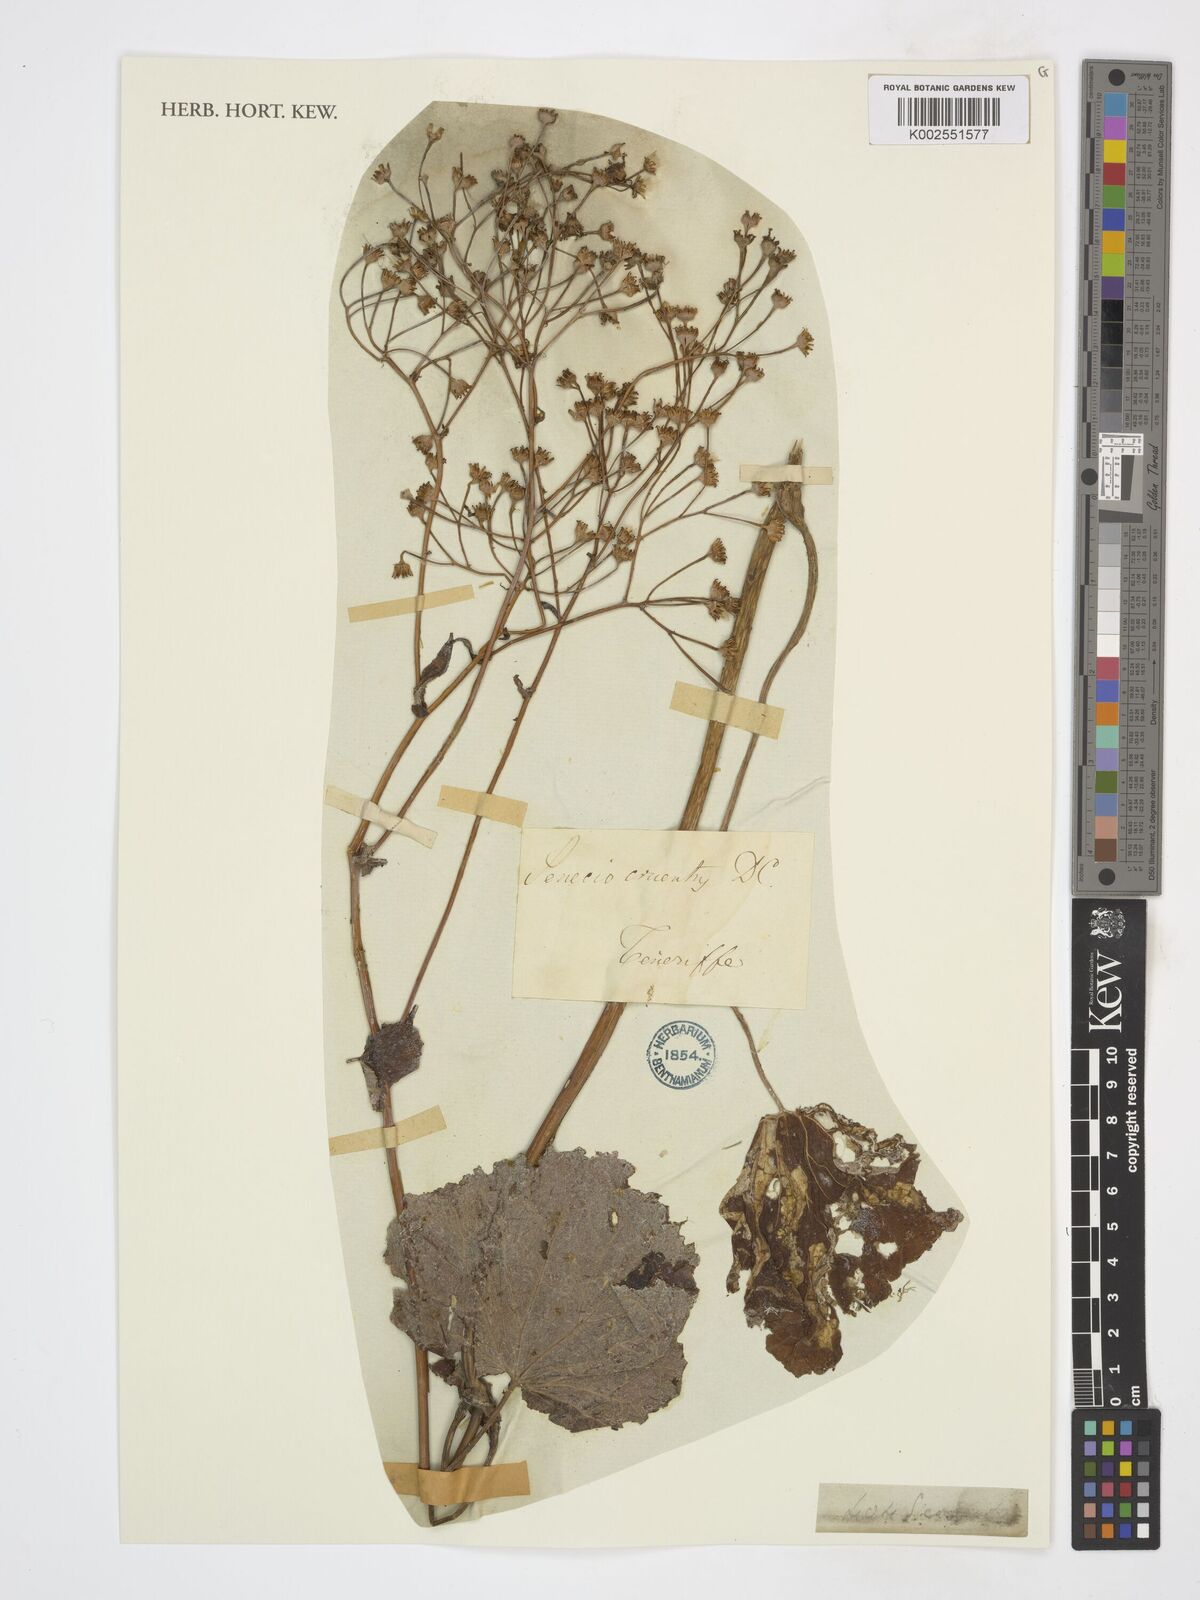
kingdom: Plantae
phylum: Tracheophyta
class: Magnoliopsida
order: Asterales
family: Asteraceae
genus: Pericallis
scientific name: Pericallis cruenta
